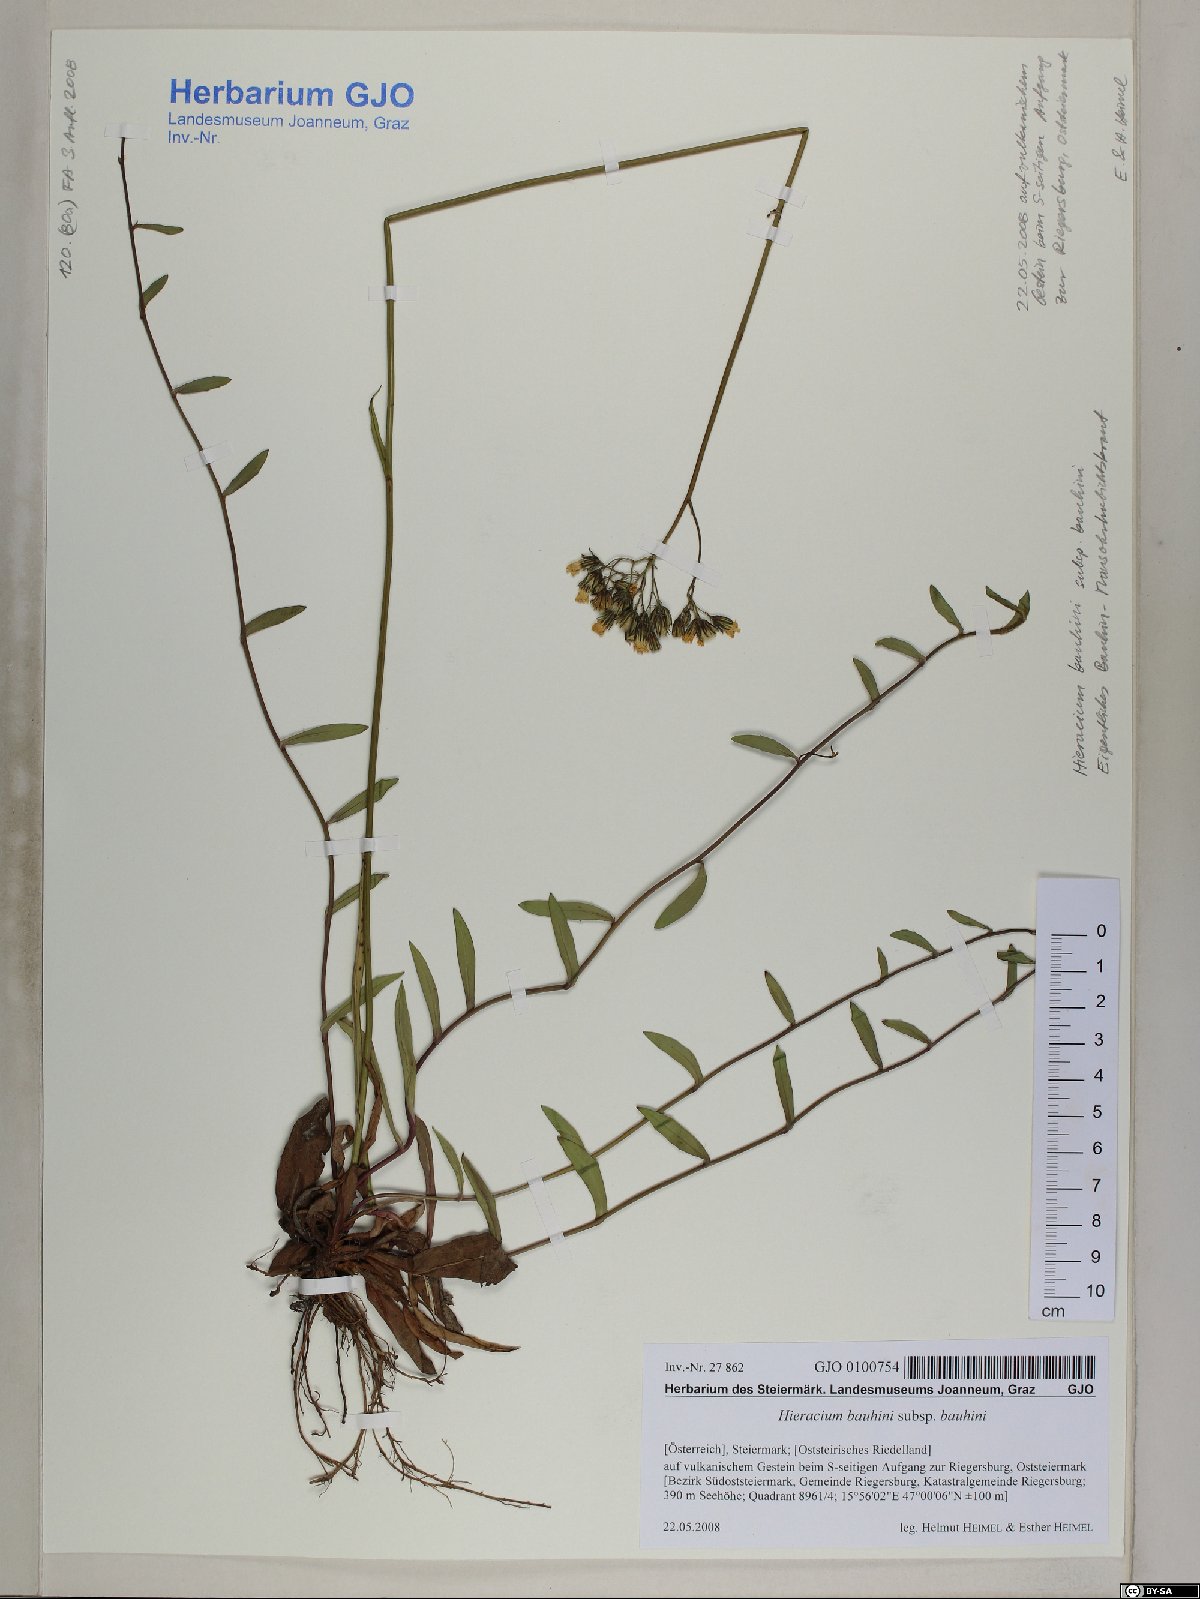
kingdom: Plantae
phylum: Tracheophyta
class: Magnoliopsida
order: Asterales
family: Asteraceae
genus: Pilosella
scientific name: Pilosella bauhini
